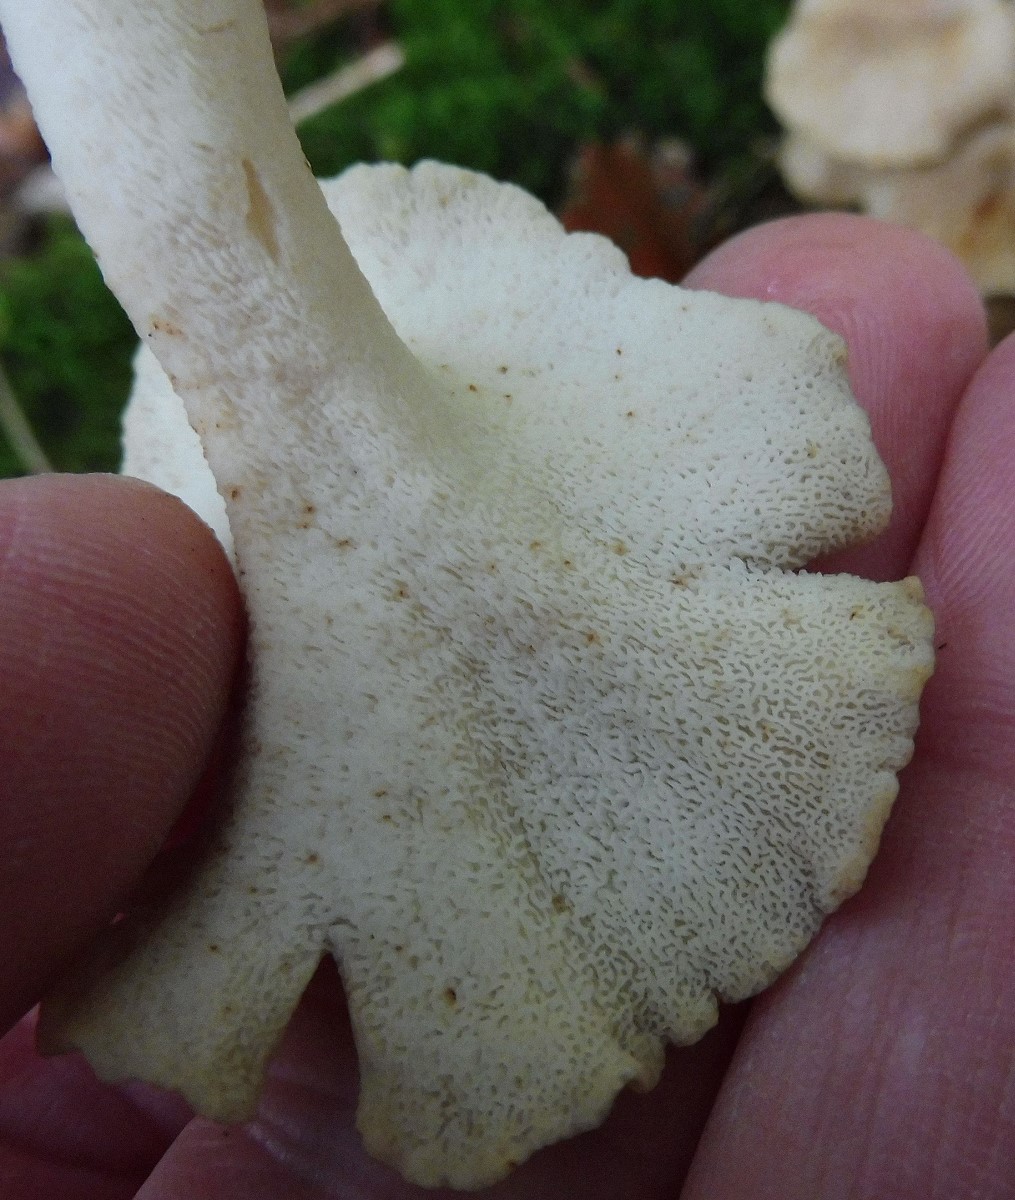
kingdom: Fungi
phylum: Basidiomycota
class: Agaricomycetes
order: Polyporales
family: Polyporaceae
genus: Polyporus
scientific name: Polyporus umbellatus
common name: skærmformet stilkporesvamp
